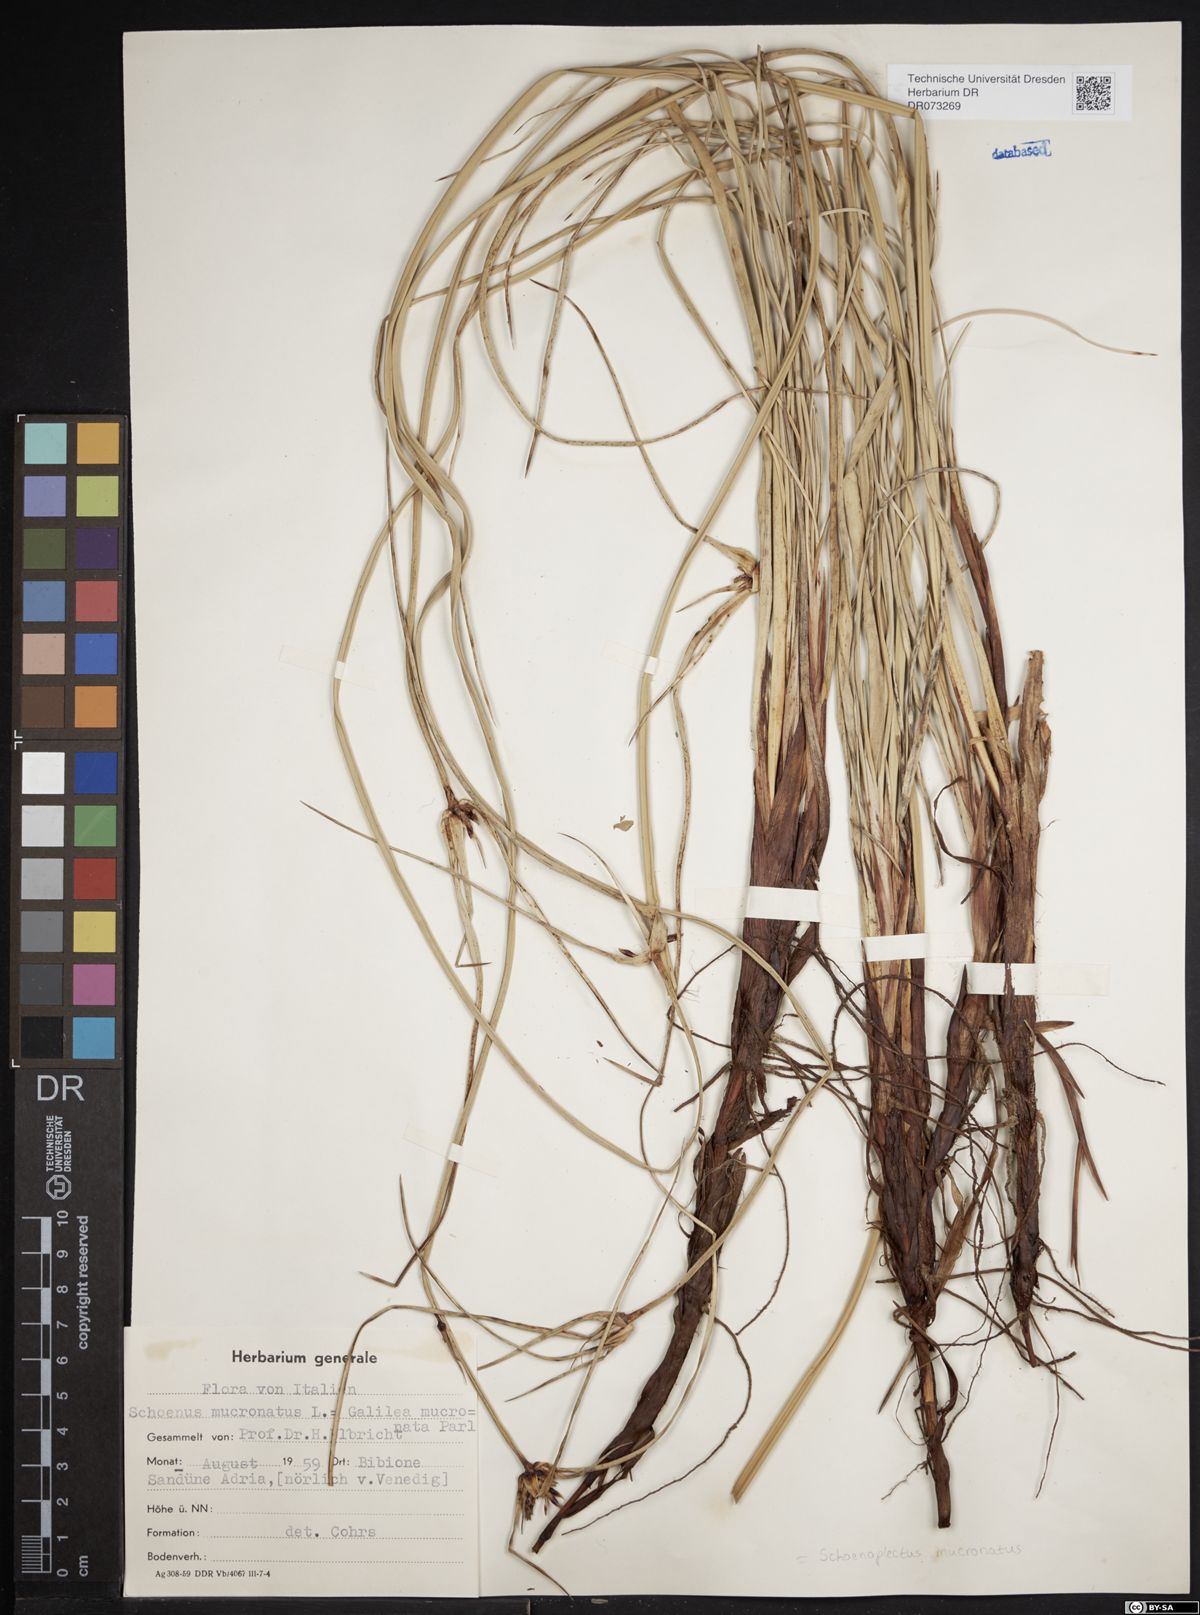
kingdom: Plantae
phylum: Tracheophyta
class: Liliopsida
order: Poales
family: Cyperaceae
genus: Schoenoplectiella
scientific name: Schoenoplectiella mucronata
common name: Bog bulrush
